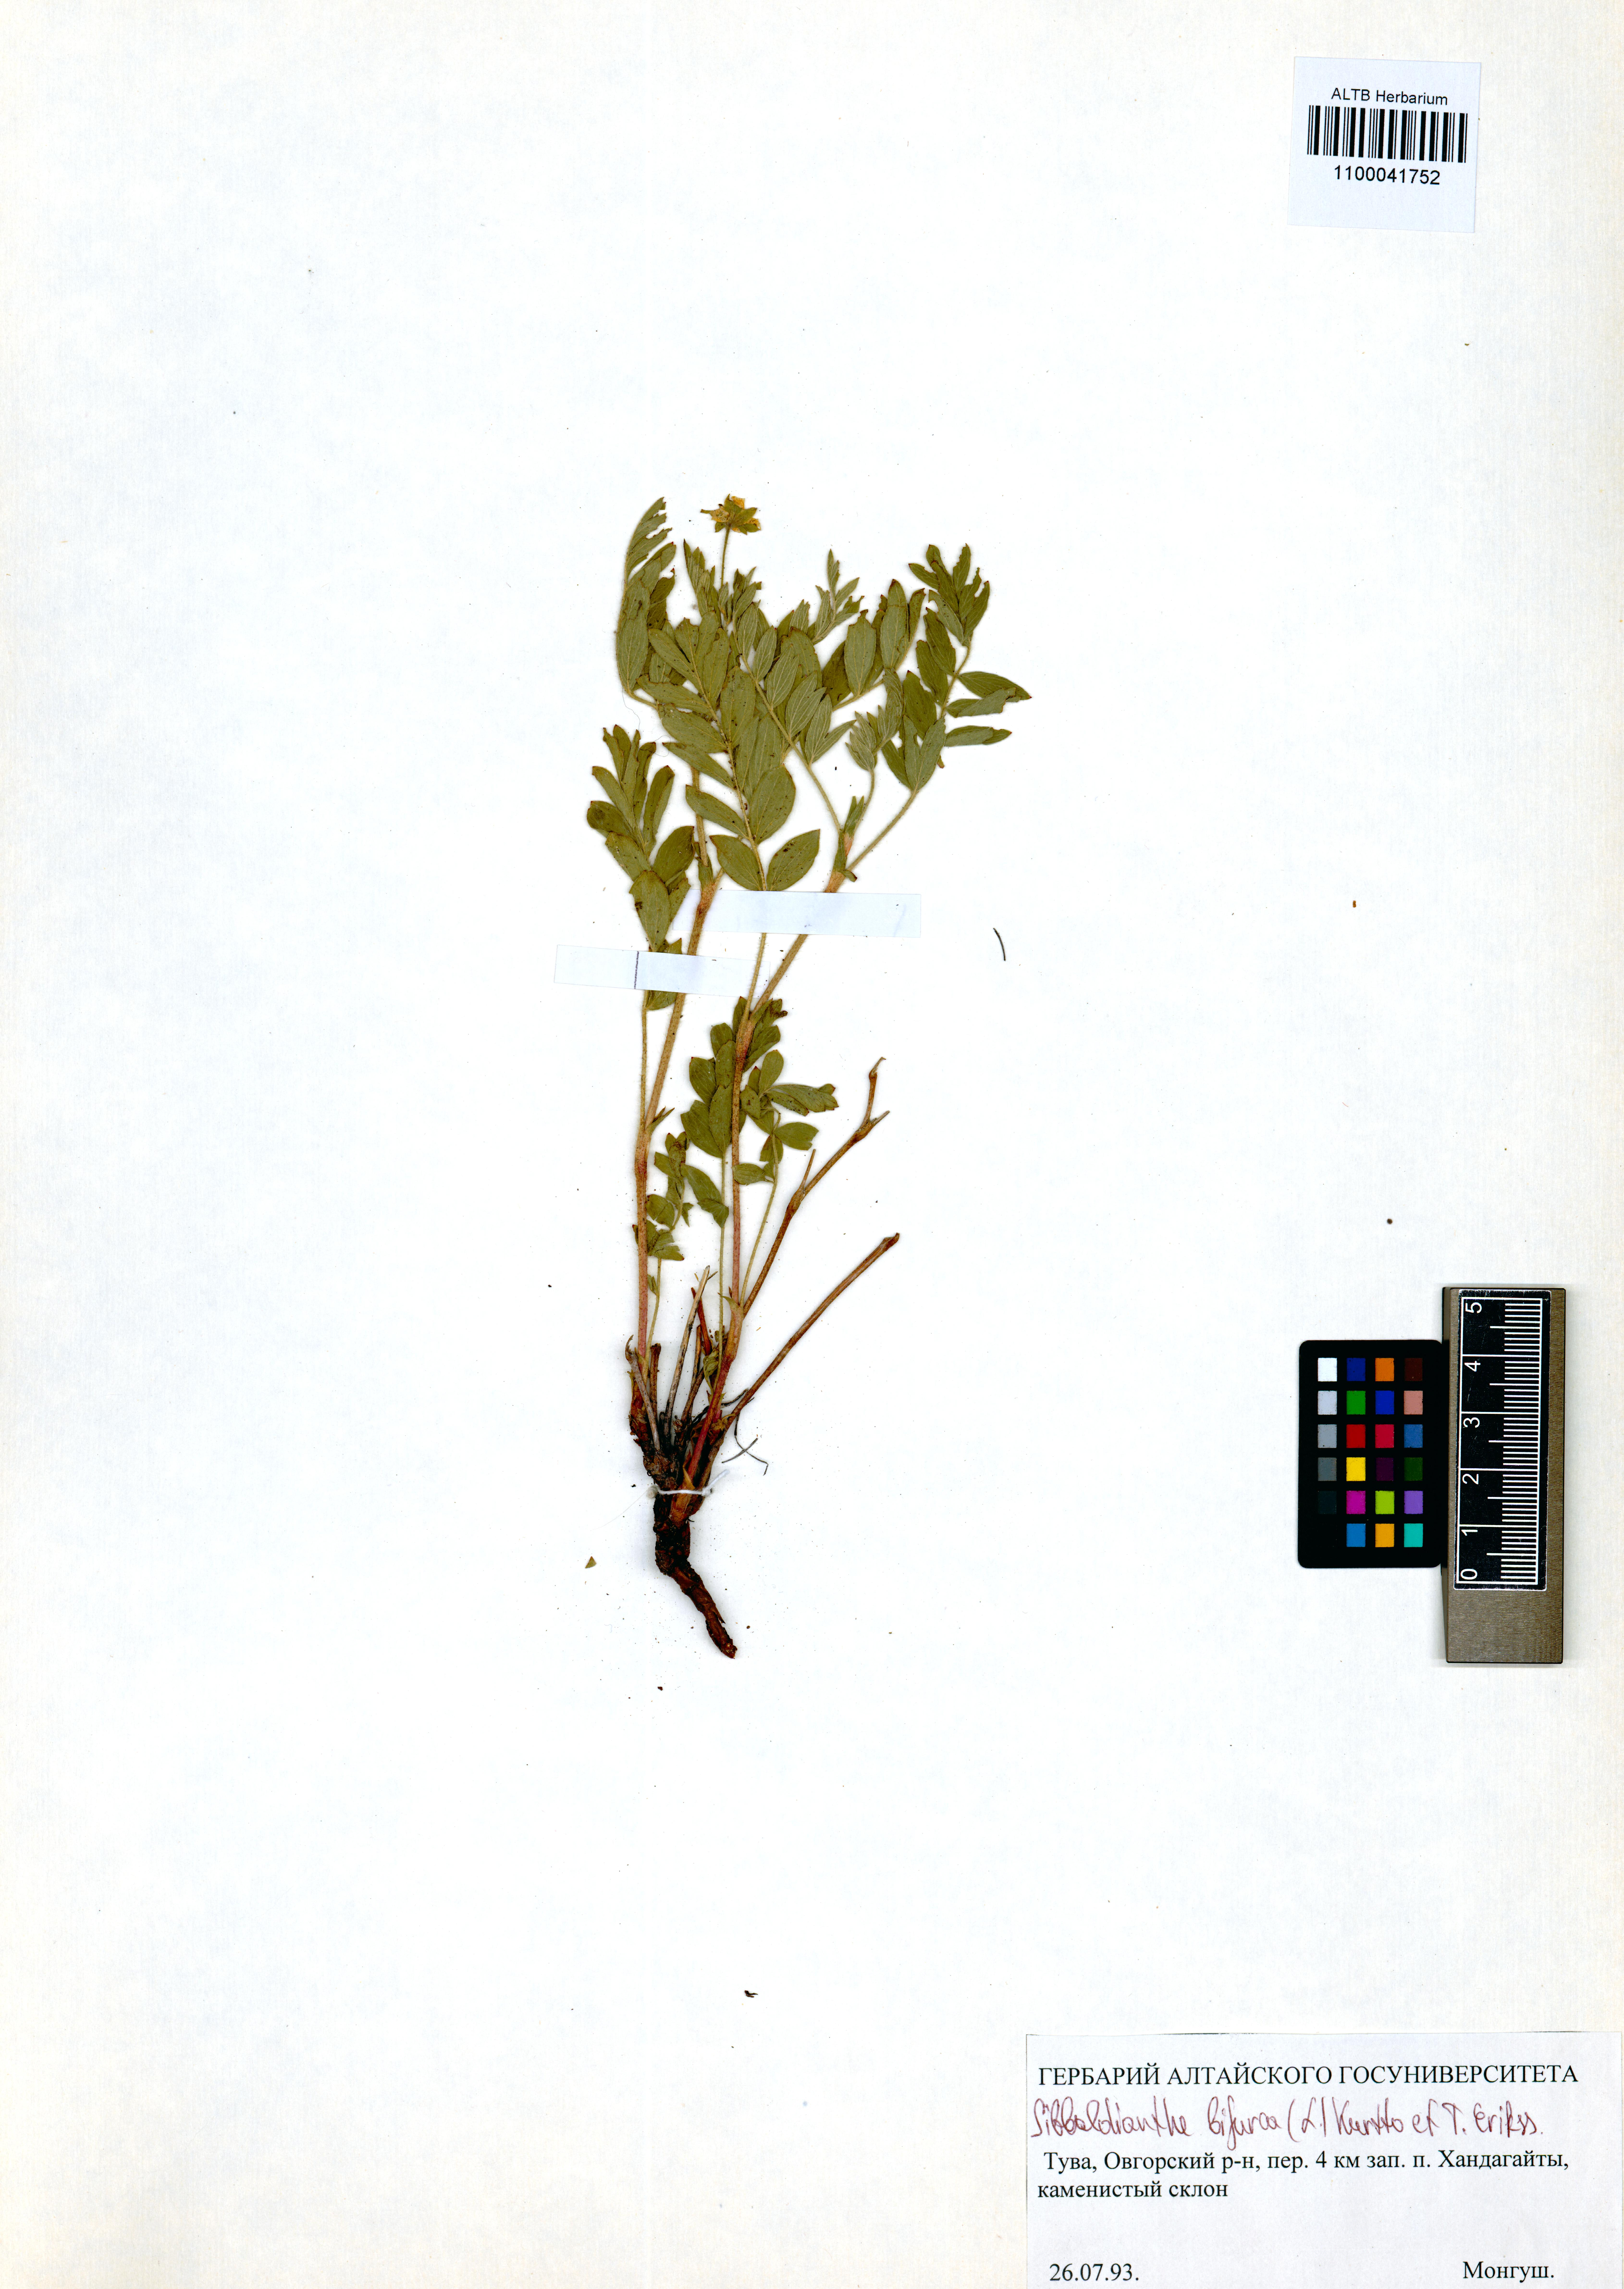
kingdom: Plantae
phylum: Tracheophyta
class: Magnoliopsida
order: Rosales
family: Rosaceae
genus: Sibbaldianthe
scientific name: Sibbaldianthe bifurca
